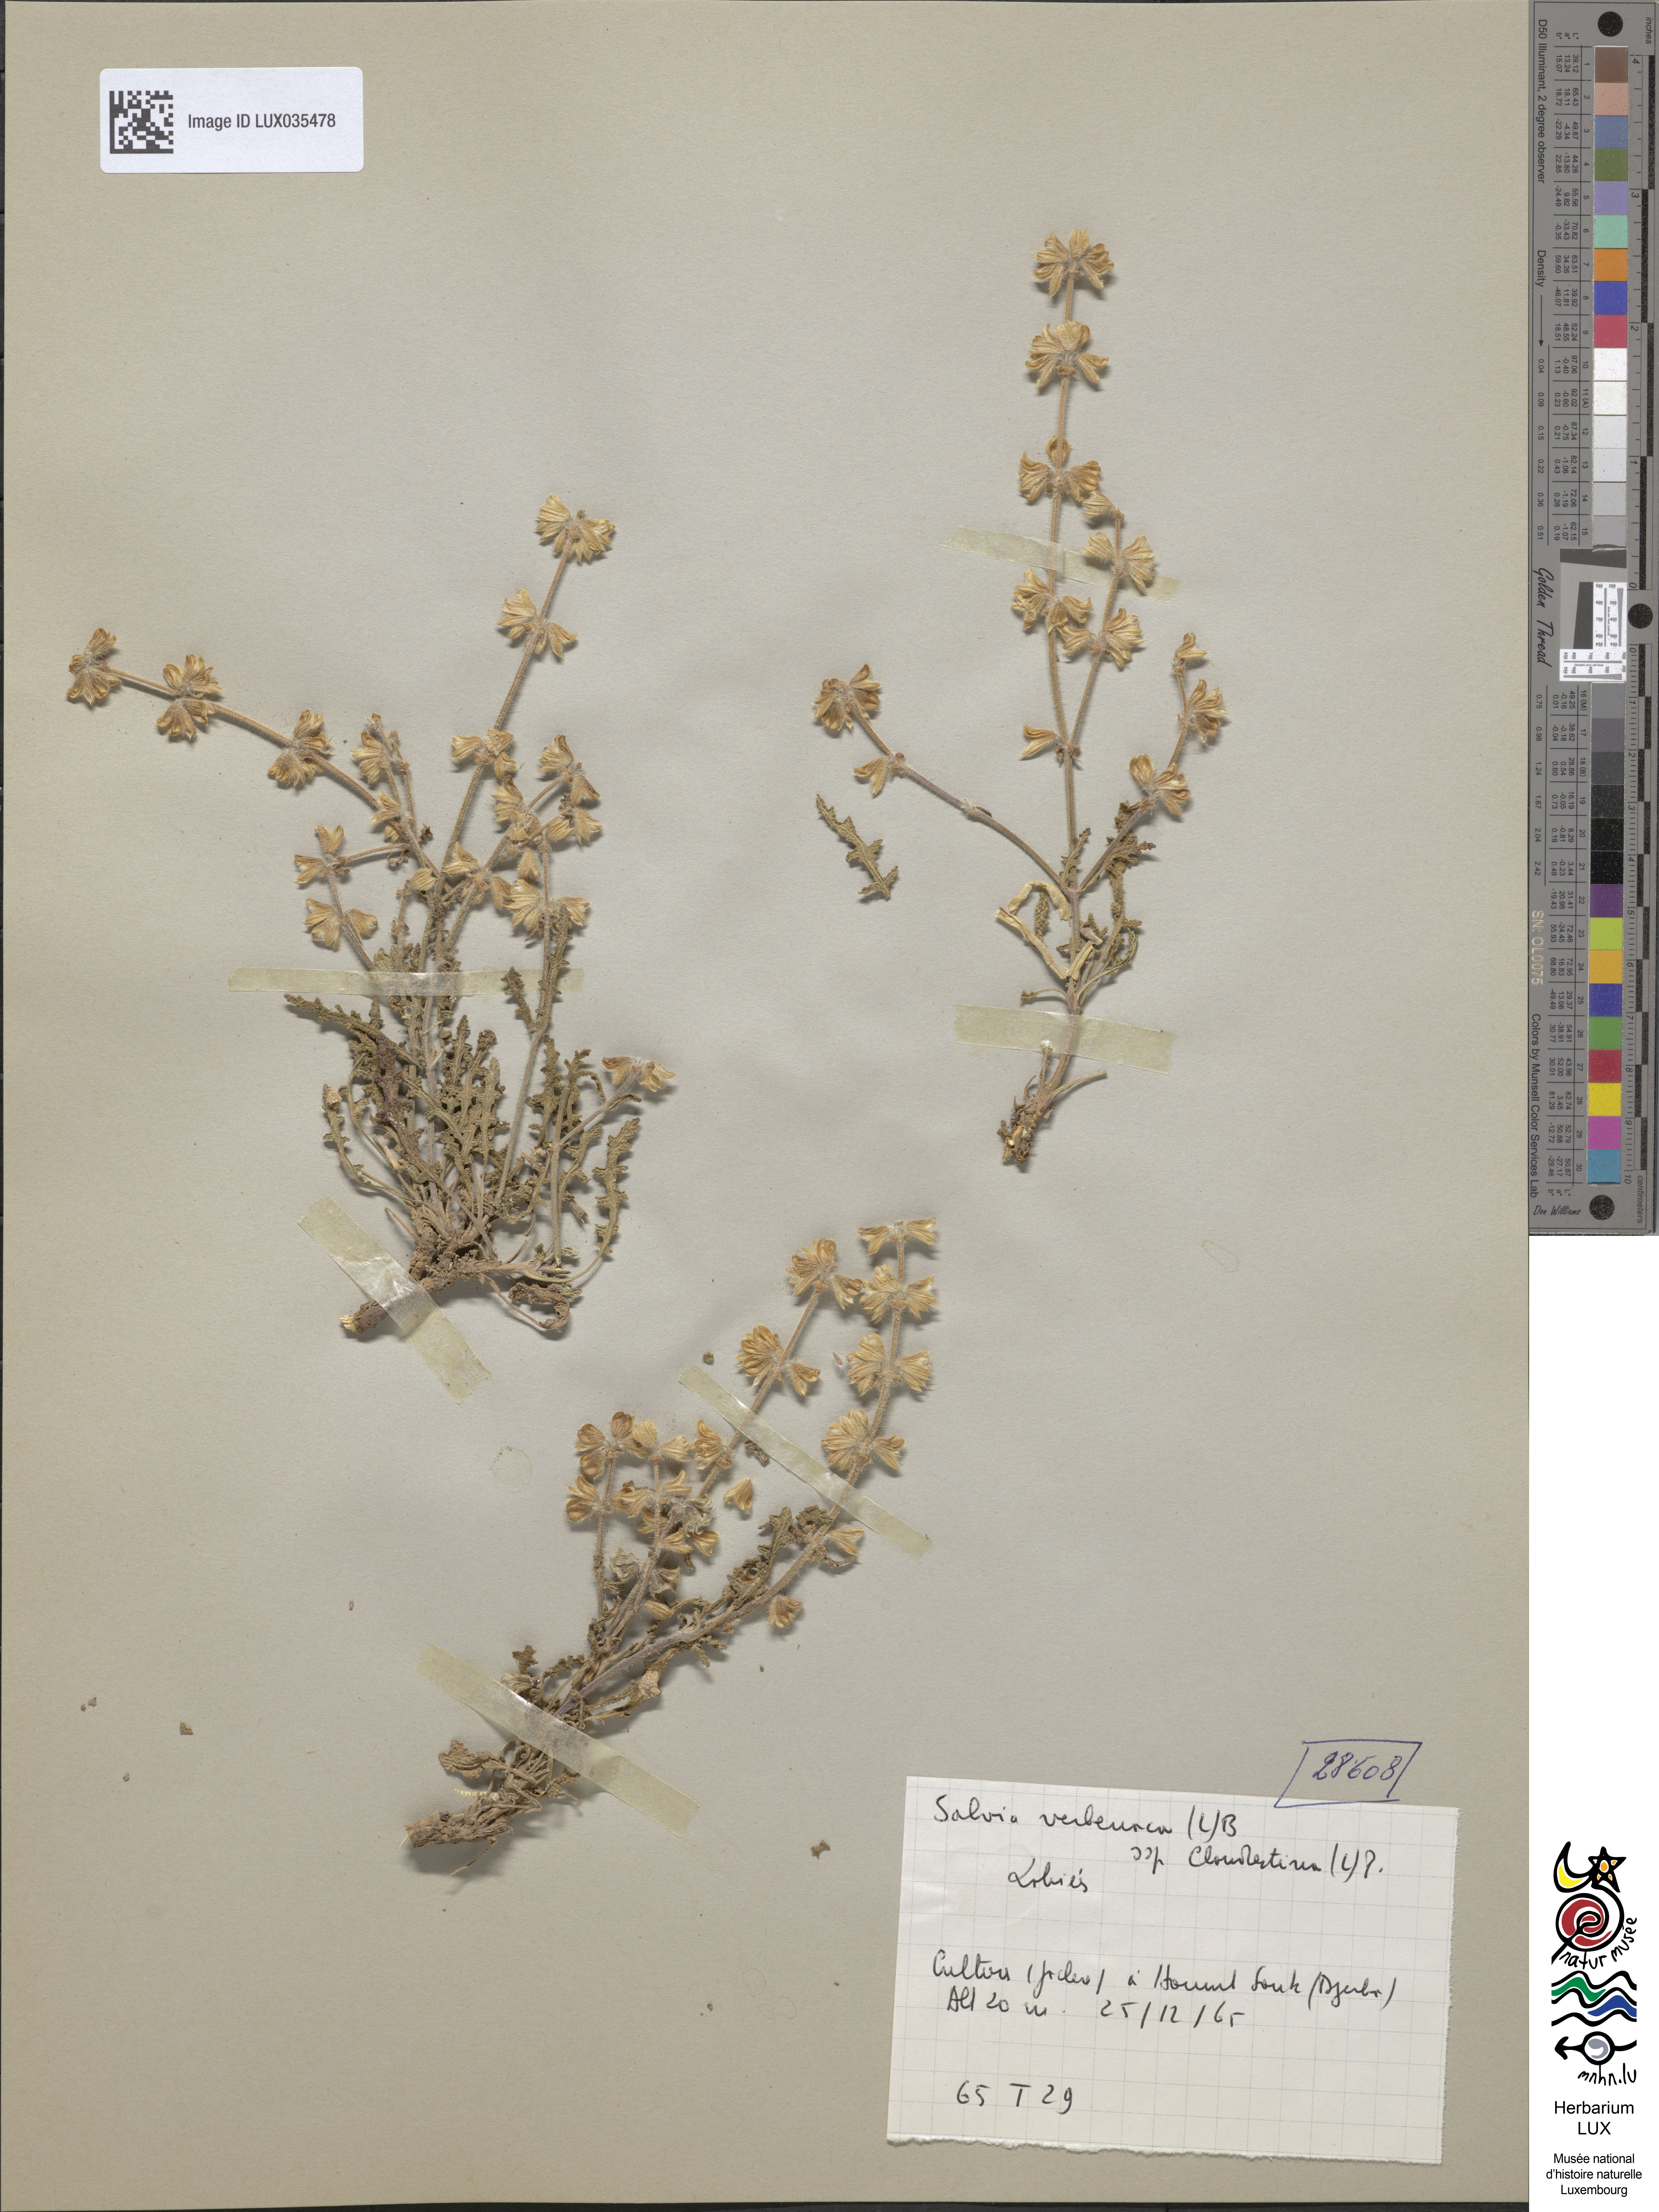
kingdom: Plantae
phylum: Tracheophyta
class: Magnoliopsida
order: Lamiales
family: Lamiaceae
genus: Salvia
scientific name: Salvia verbenaca
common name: Wild clary
